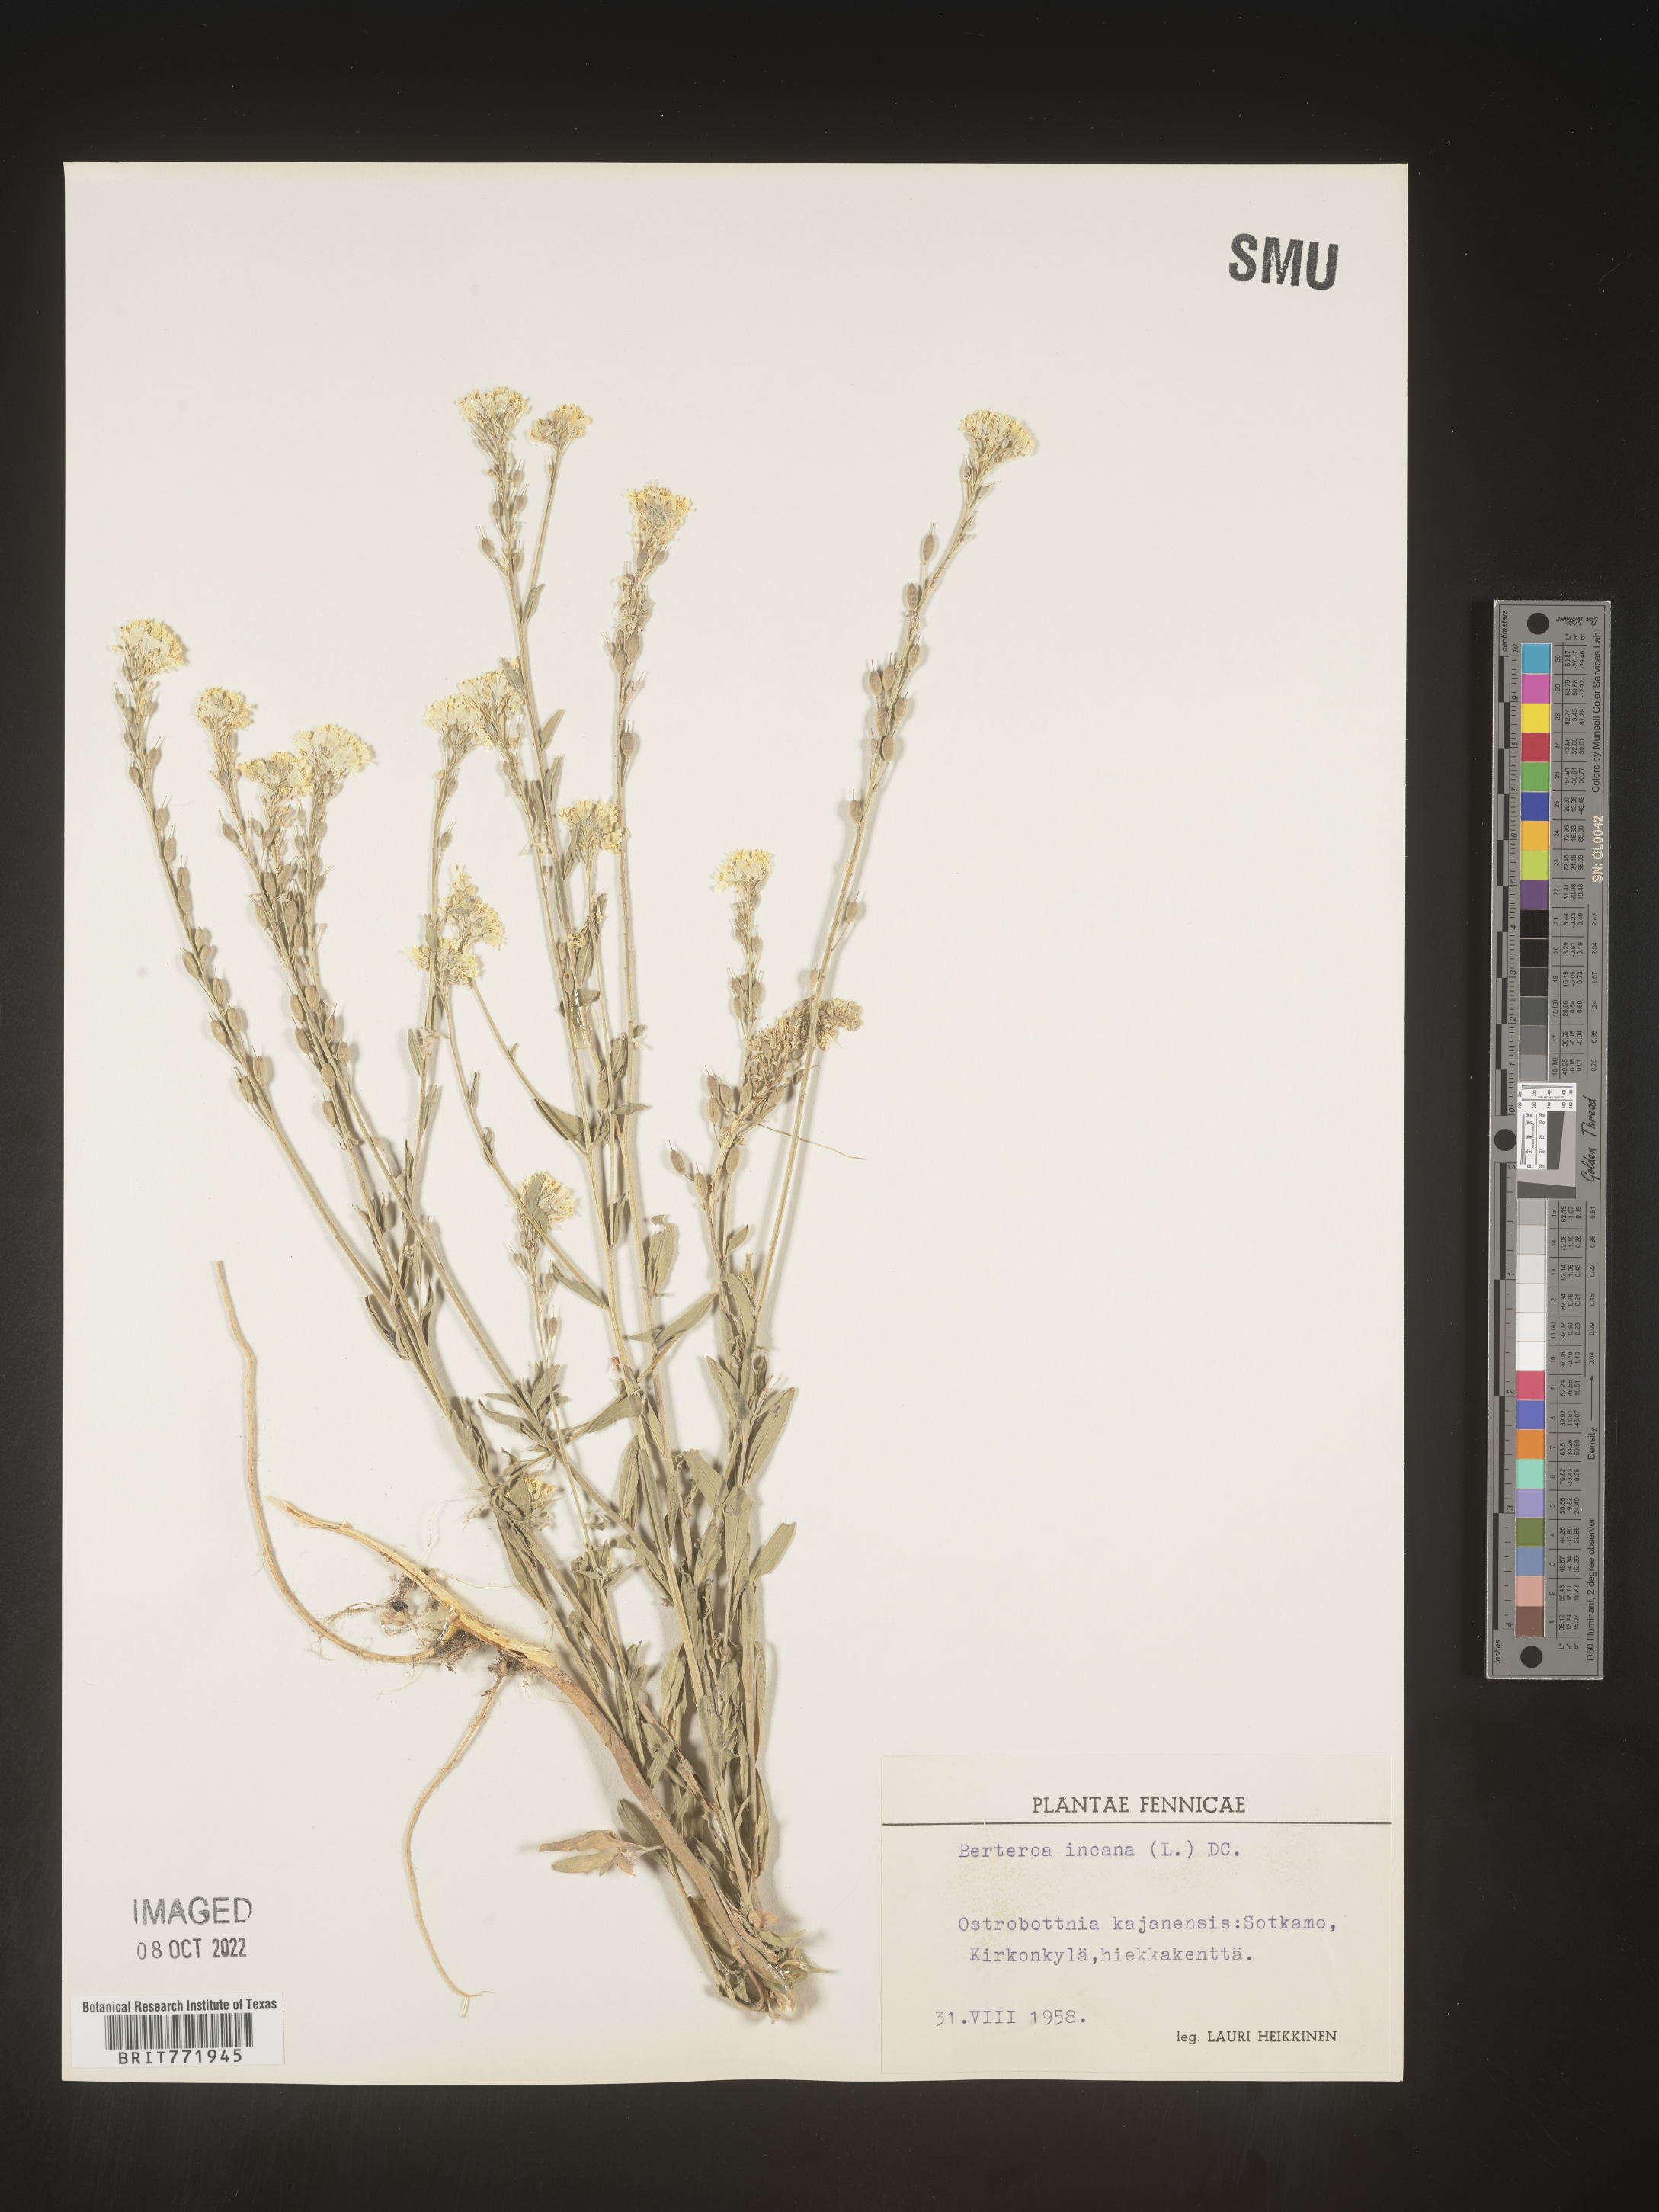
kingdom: Plantae
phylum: Tracheophyta
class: Magnoliopsida
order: Brassicales
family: Brassicaceae
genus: Berteroa
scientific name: Berteroa
